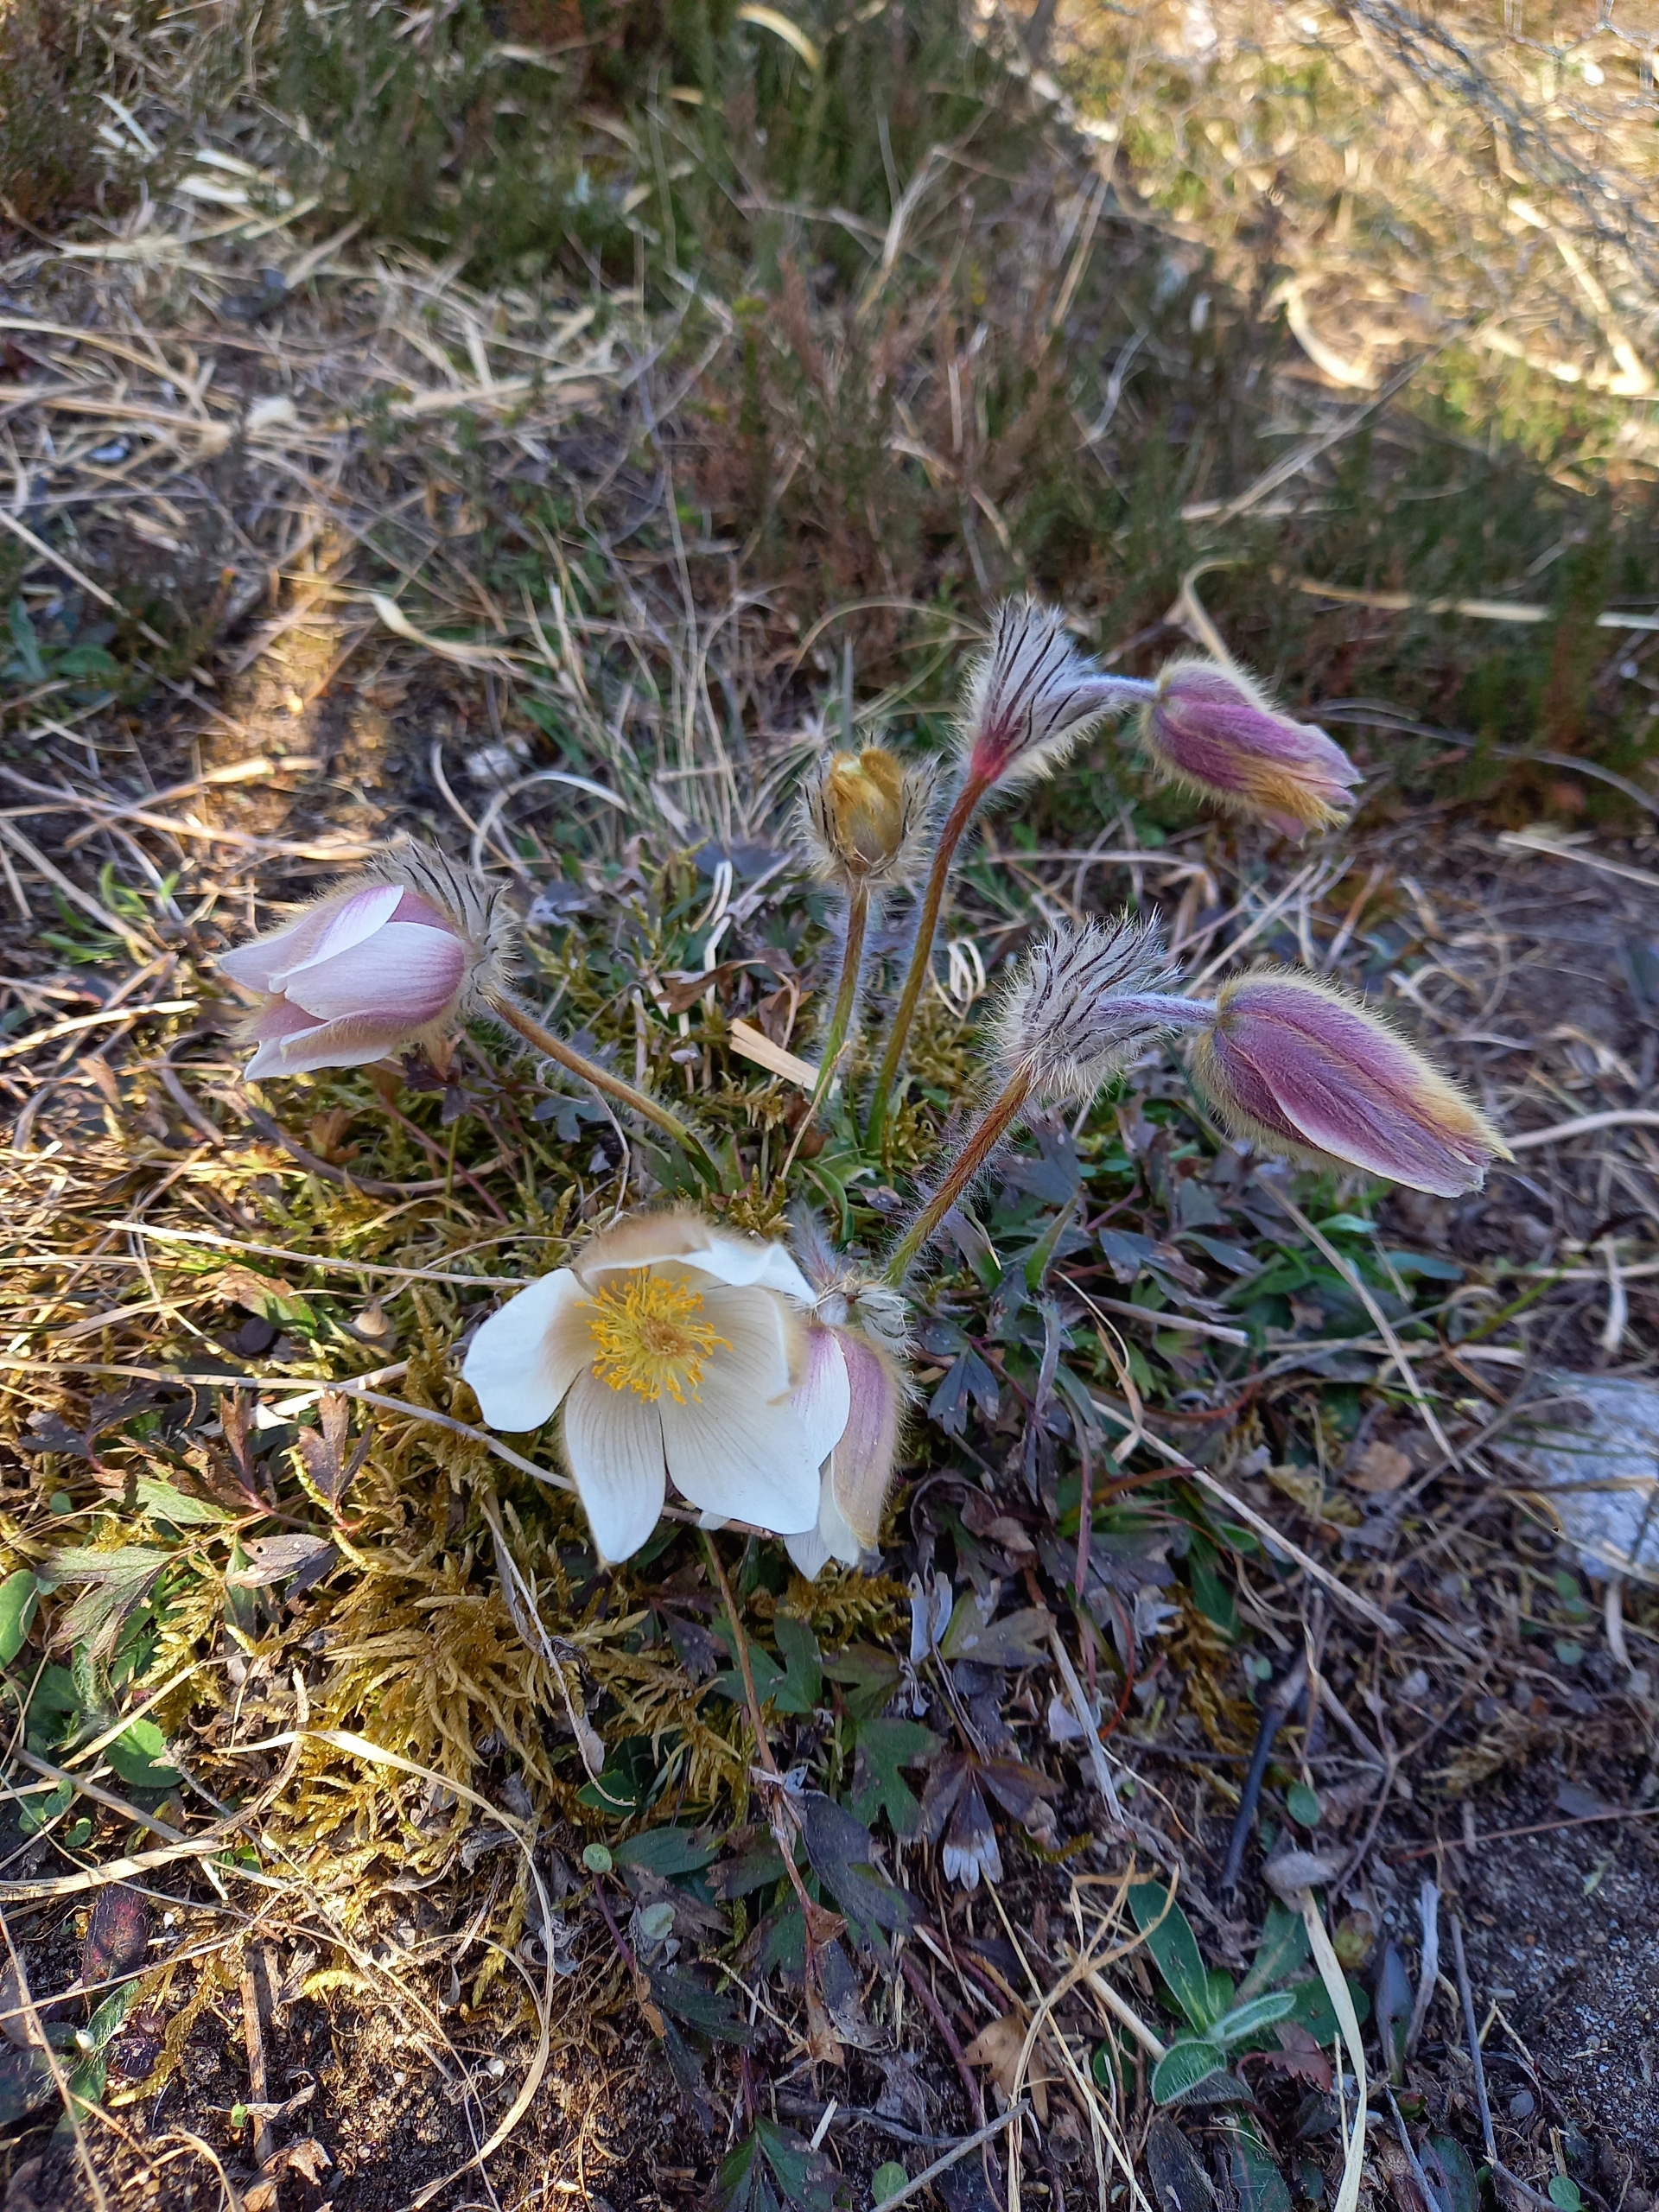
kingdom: Plantae
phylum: Tracheophyta
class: Magnoliopsida
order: Ranunculales
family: Ranunculaceae
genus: Pulsatilla
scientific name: Pulsatilla vernalis
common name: Vår-kobjælde
